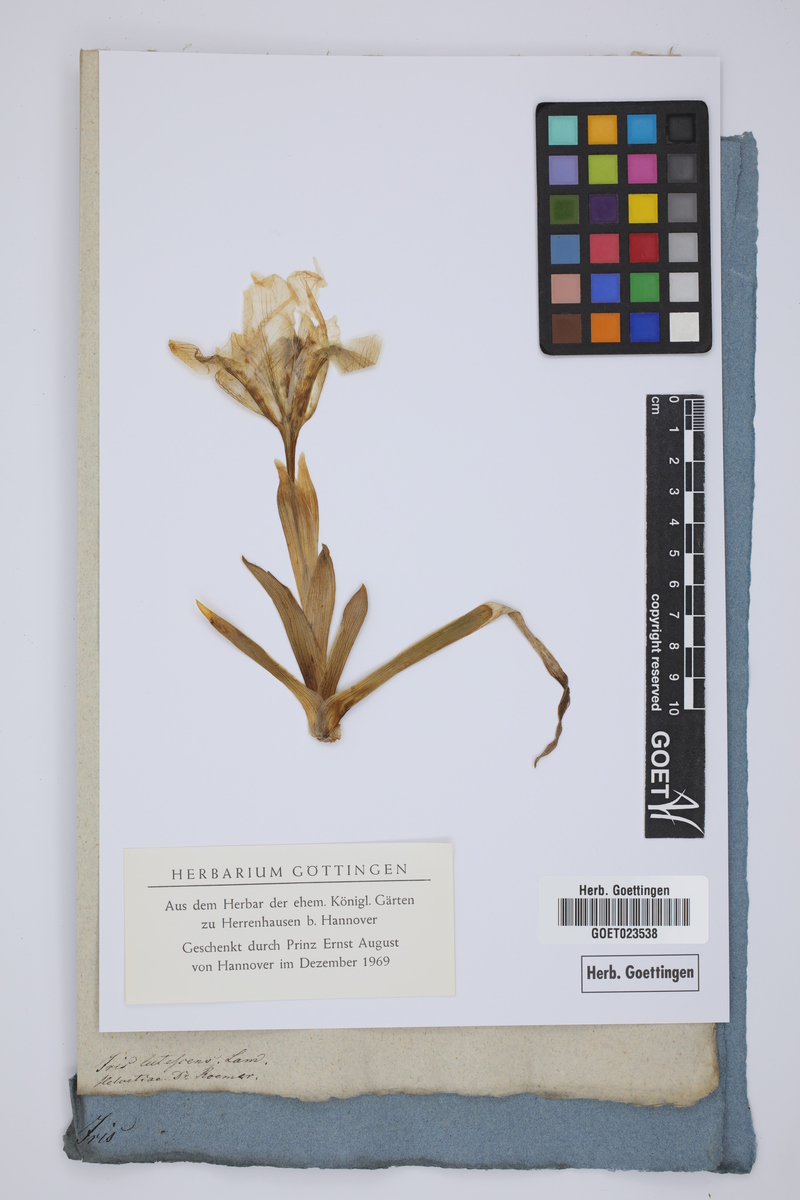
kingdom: Plantae
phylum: Tracheophyta
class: Liliopsida
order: Asparagales
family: Iridaceae
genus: Iris
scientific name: Iris lutescens
